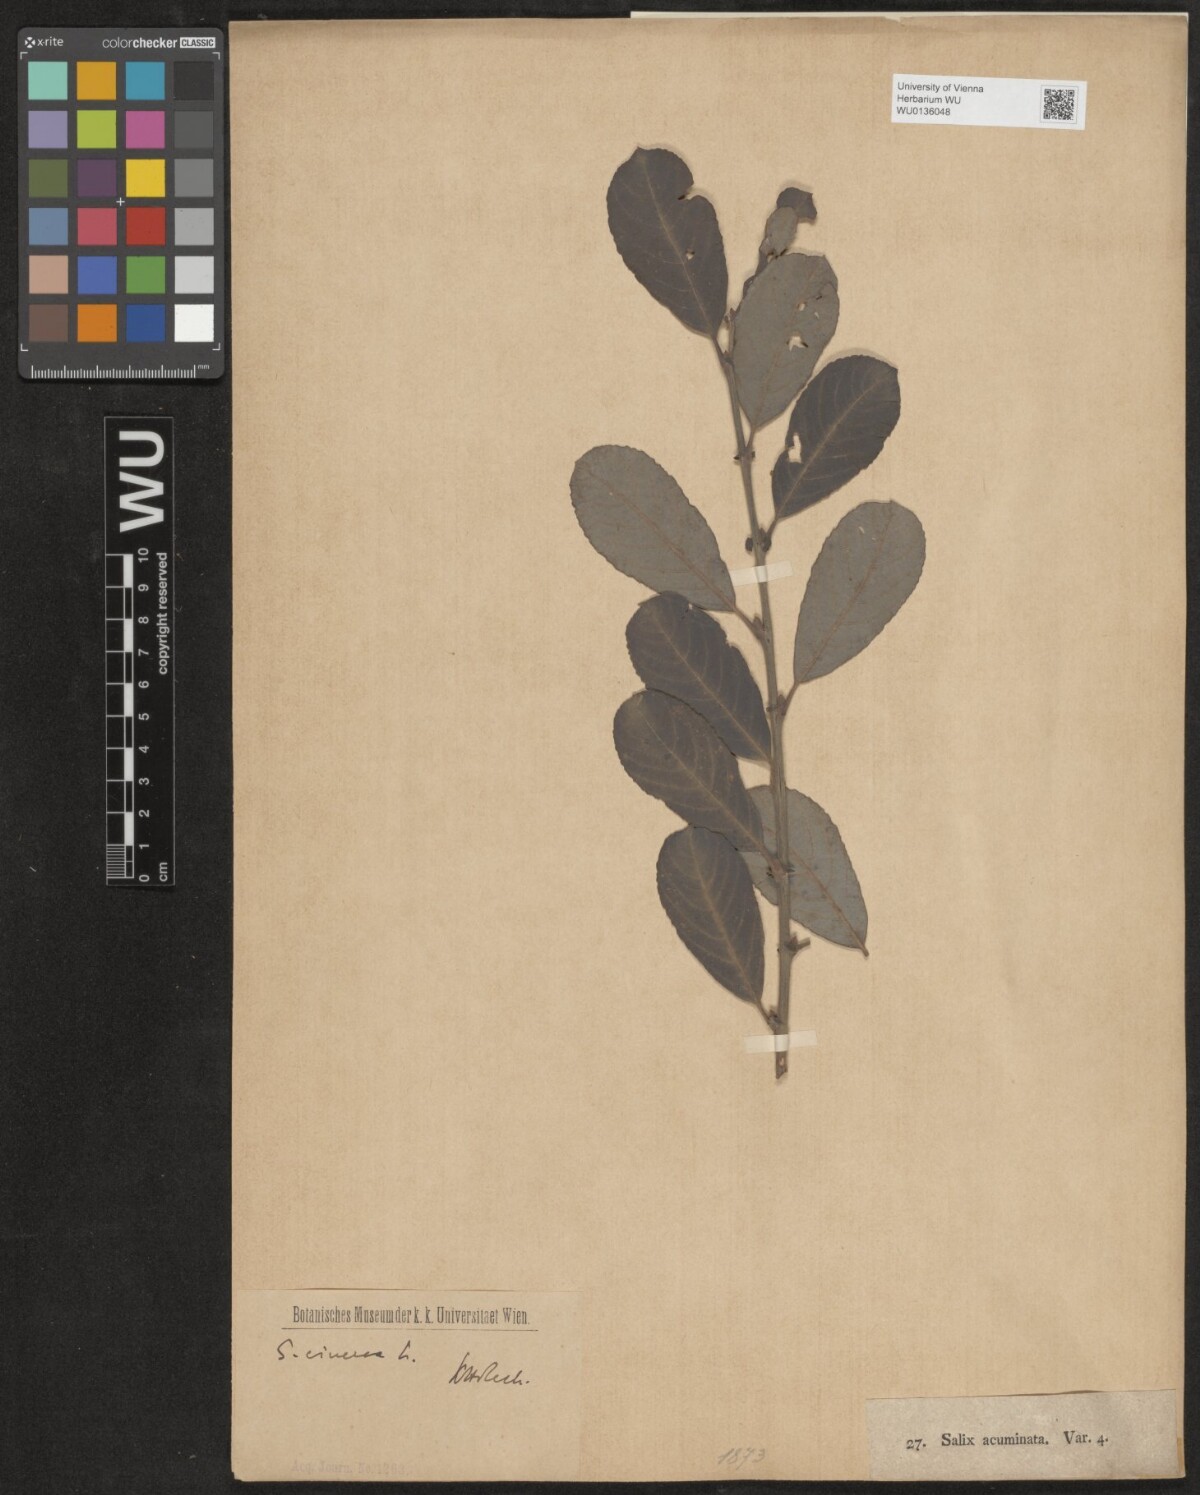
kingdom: Plantae
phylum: Tracheophyta
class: Magnoliopsida
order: Malpighiales
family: Salicaceae
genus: Salix
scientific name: Salix cinerea
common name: Common sallow
